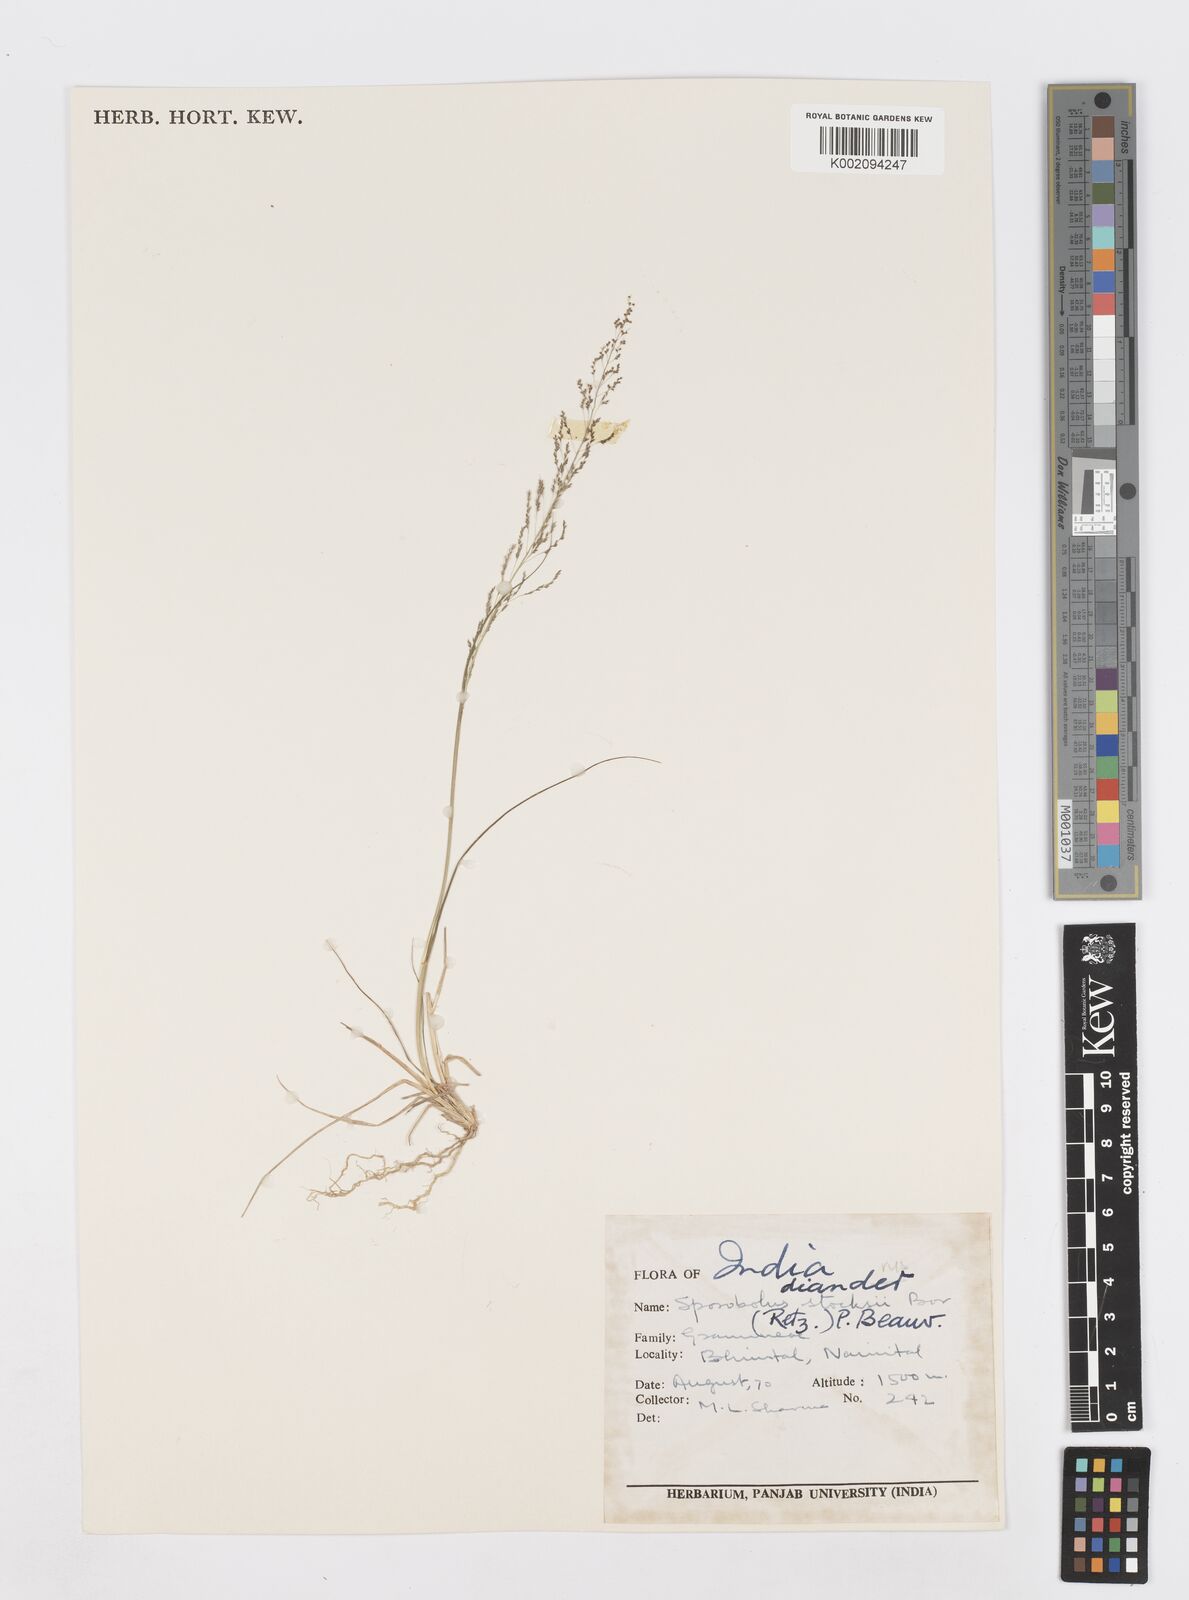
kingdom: Plantae
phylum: Tracheophyta
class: Liliopsida
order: Poales
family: Poaceae
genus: Sporobolus
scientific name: Sporobolus
